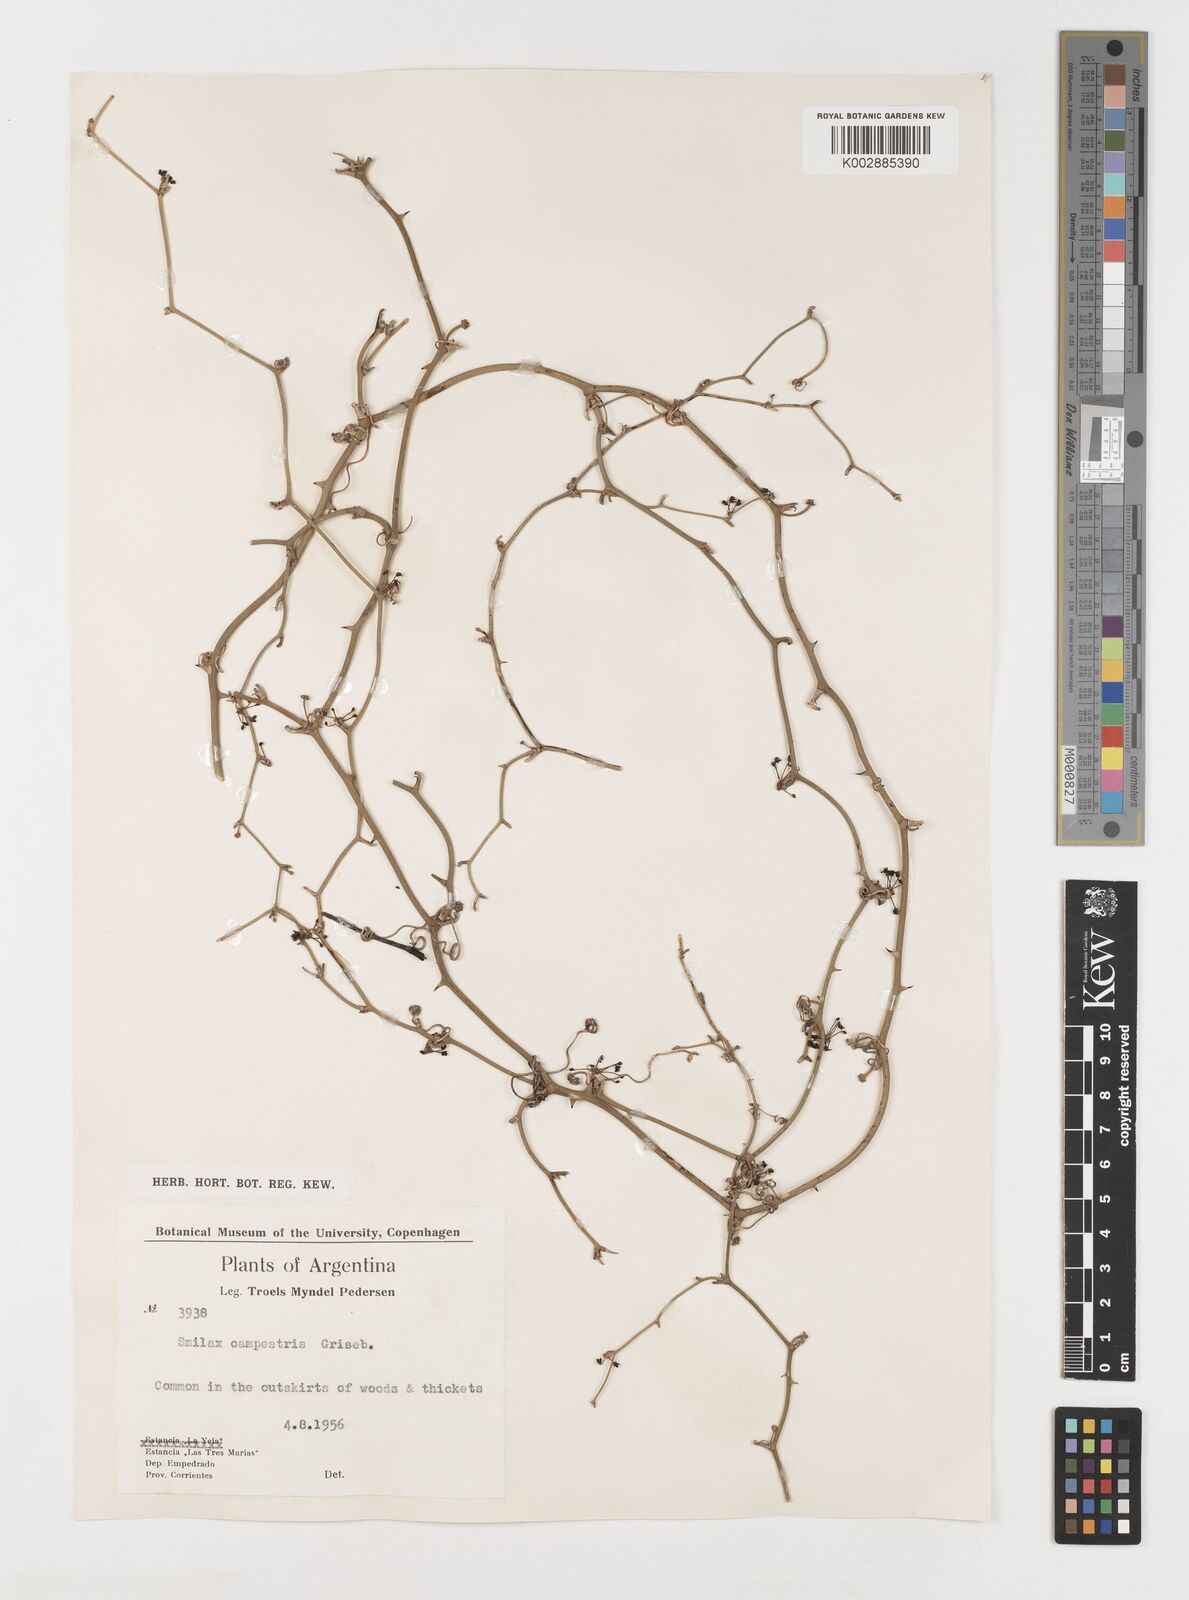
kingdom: Plantae
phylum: Tracheophyta
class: Liliopsida
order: Liliales
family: Smilacaceae
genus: Smilax
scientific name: Smilax campestris
